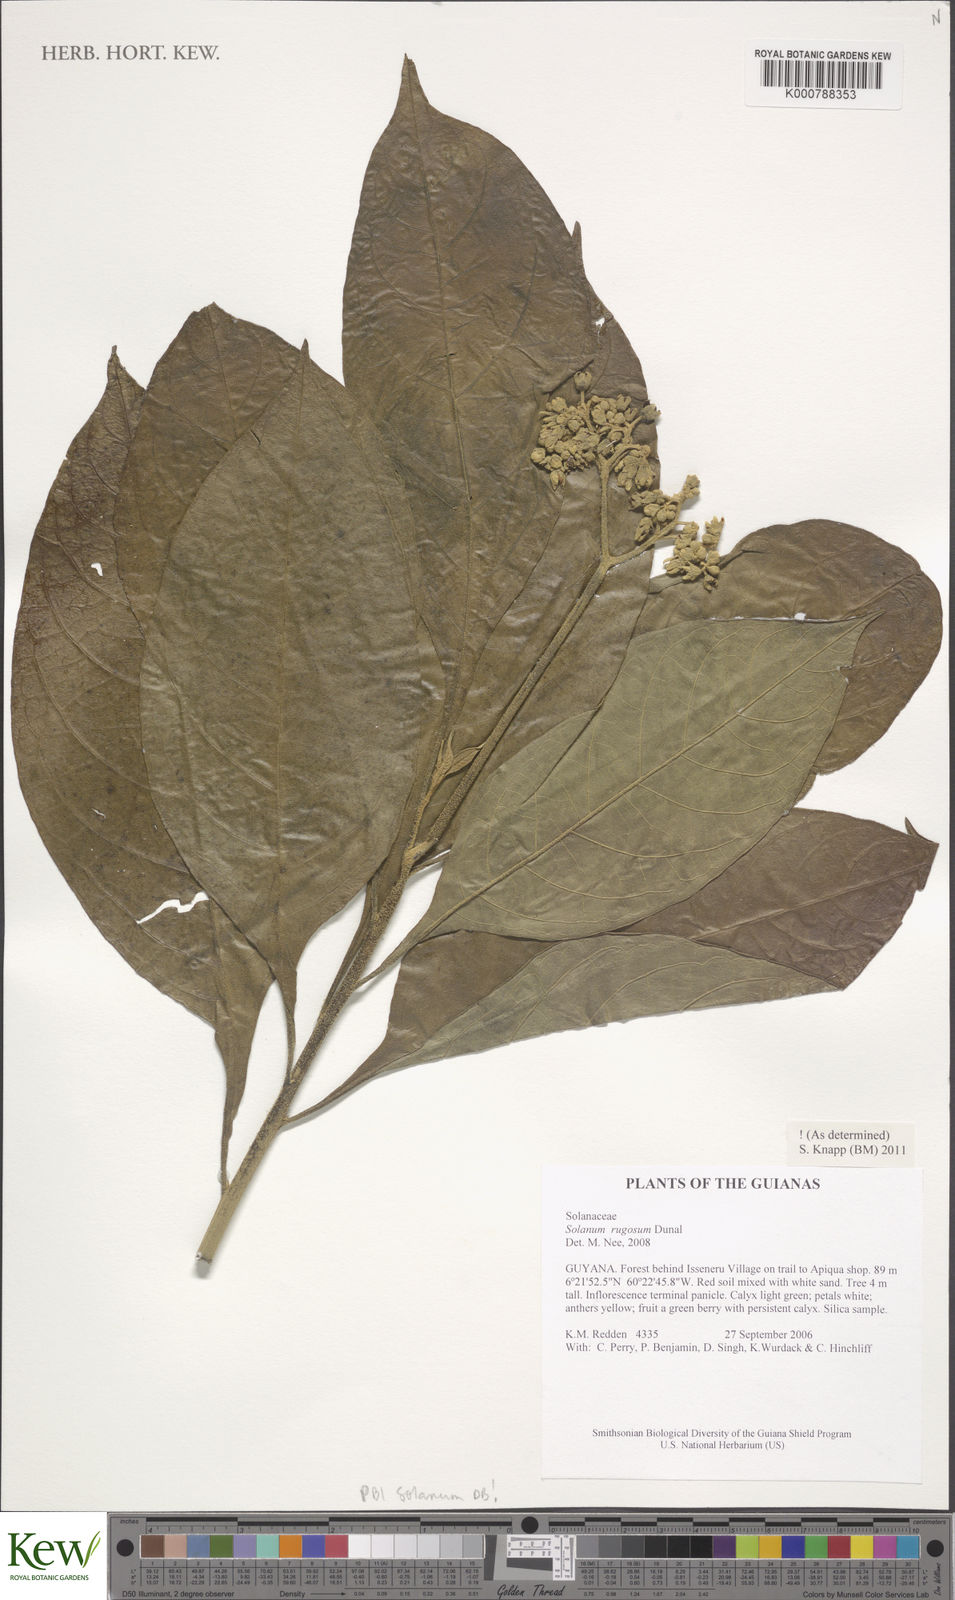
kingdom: Plantae
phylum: Tracheophyta
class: Magnoliopsida
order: Solanales
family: Solanaceae
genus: Solanum
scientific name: Solanum rugosum
